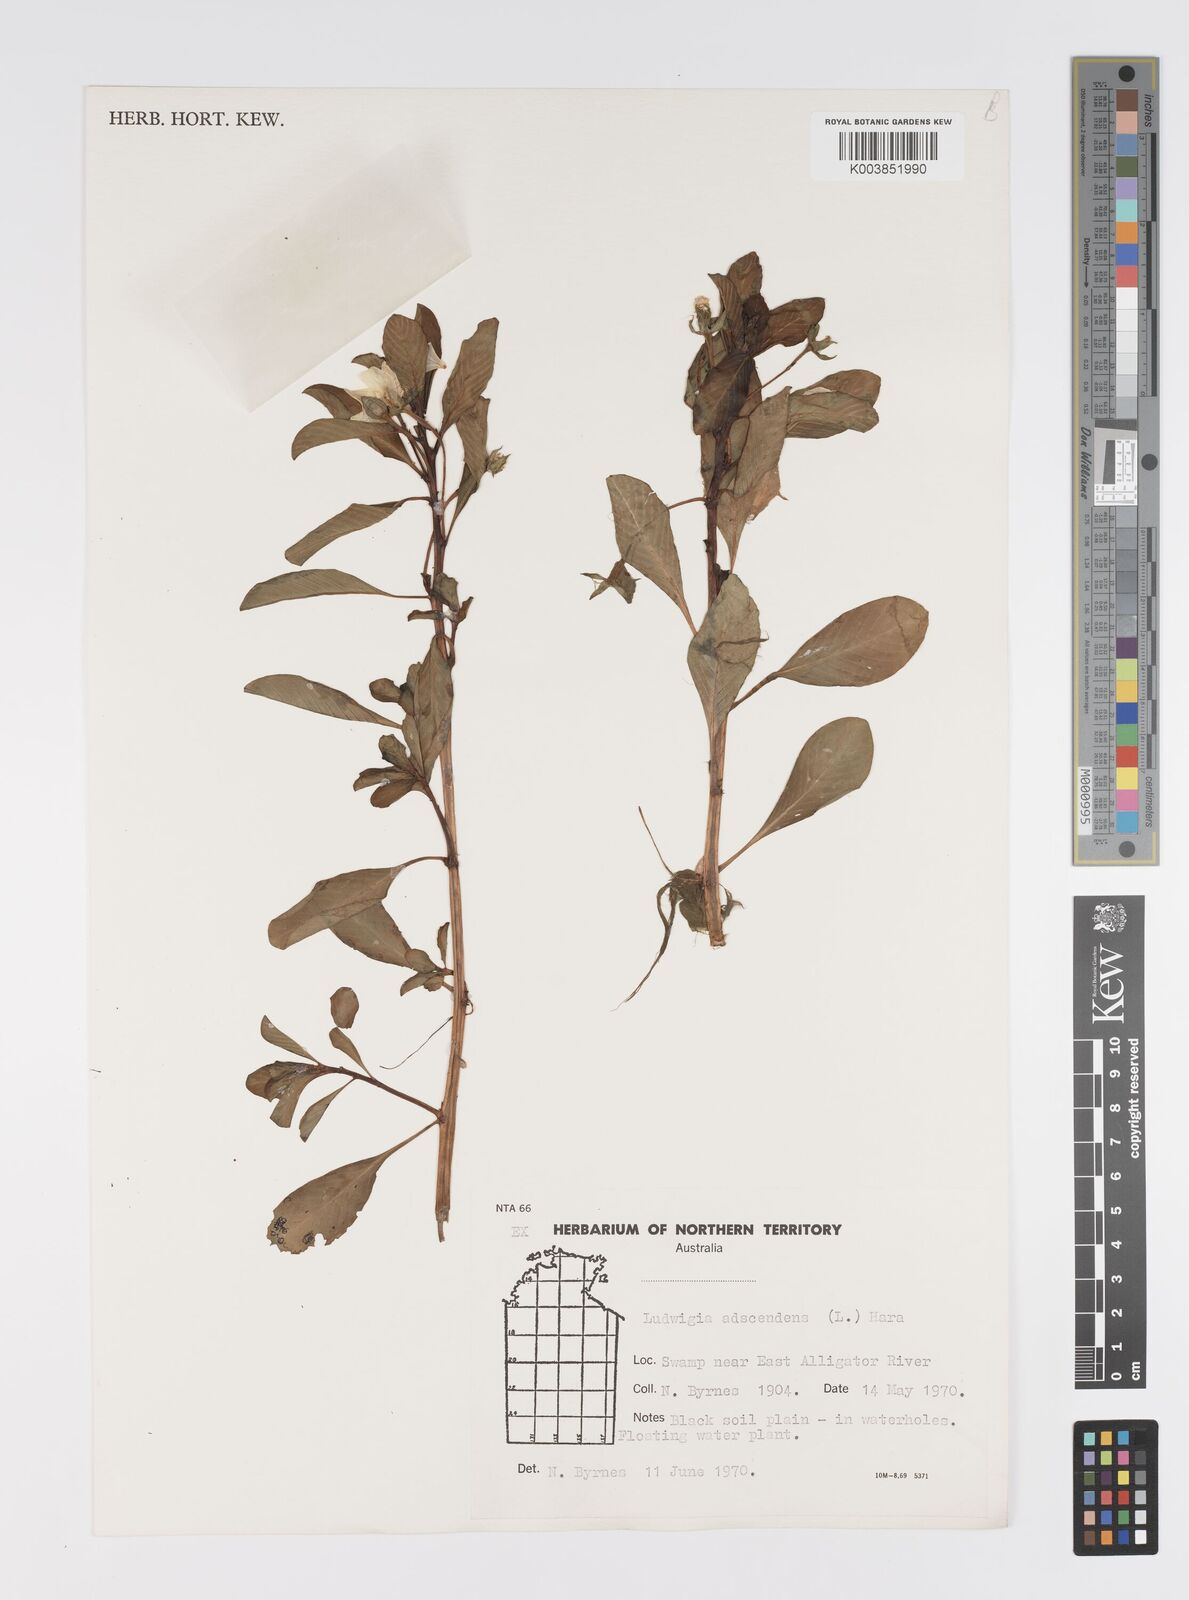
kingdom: Plantae
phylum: Tracheophyta
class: Magnoliopsida
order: Myrtales
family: Onagraceae
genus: Ludwigia
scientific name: Ludwigia adscendens
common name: Creeping water primrose
